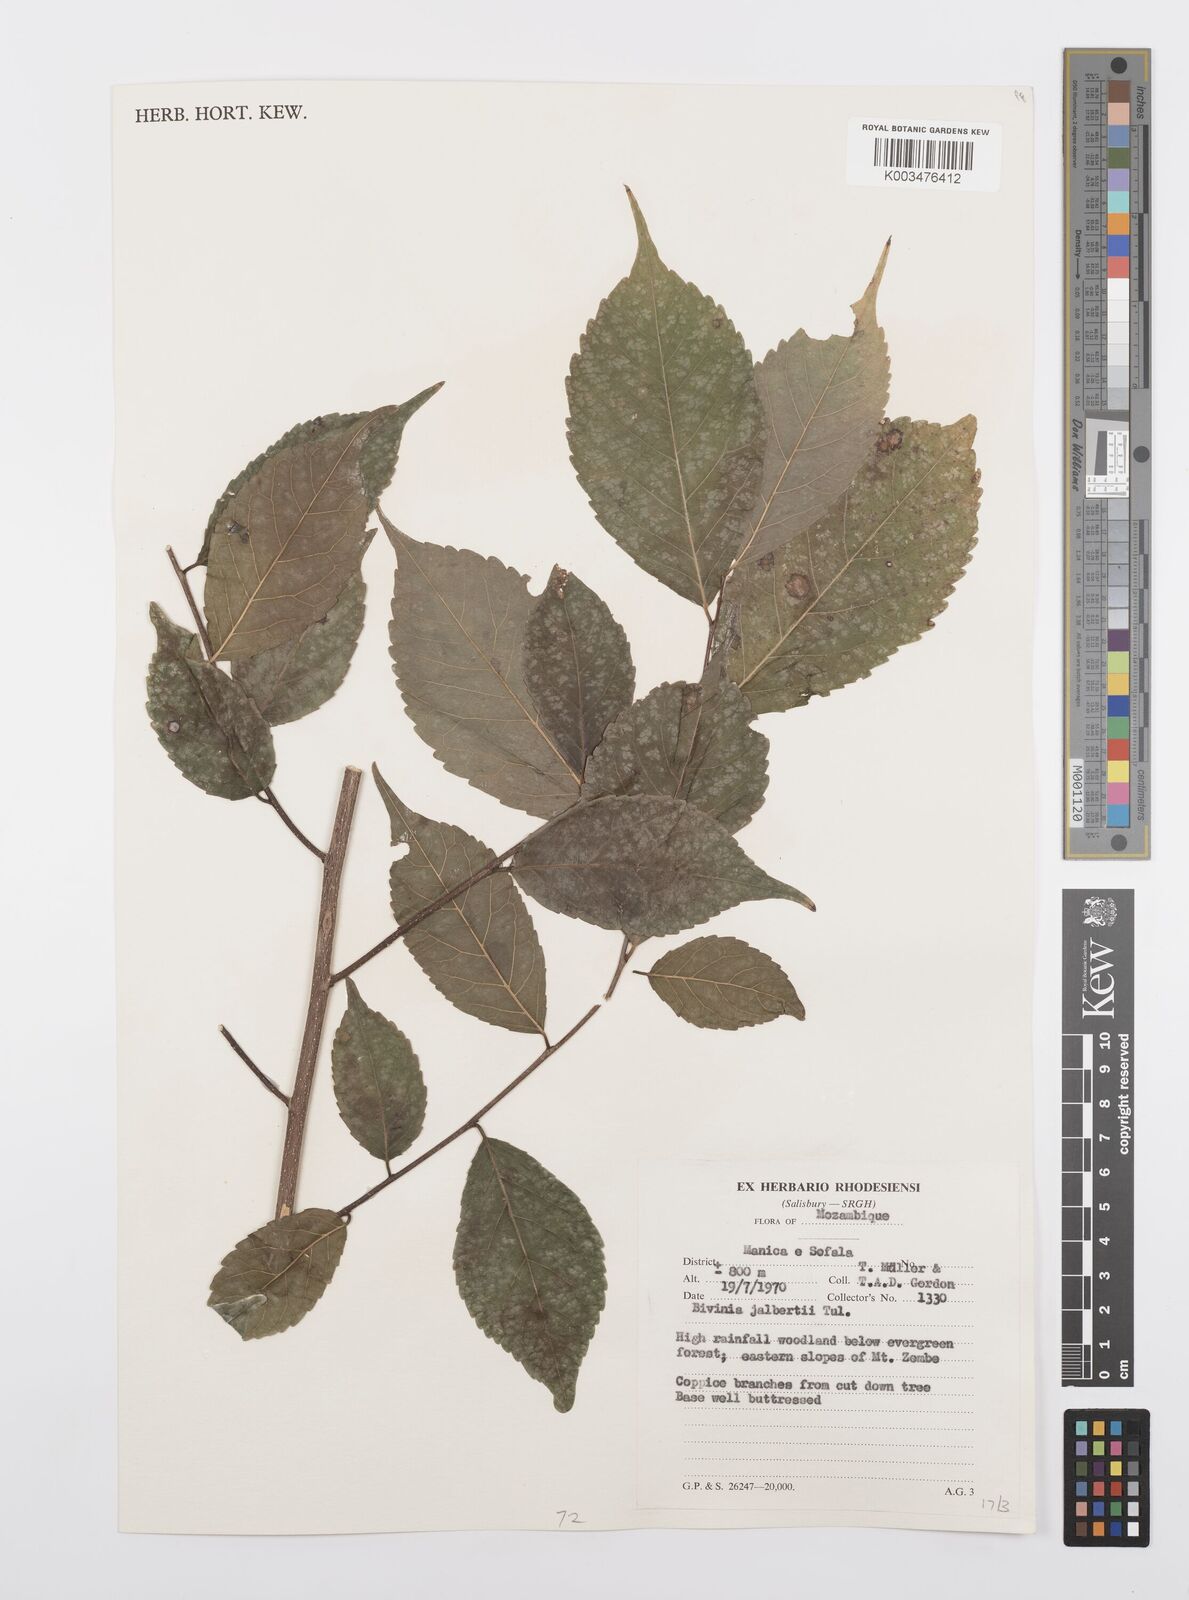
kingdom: Plantae
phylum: Tracheophyta
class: Magnoliopsida
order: Malpighiales
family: Salicaceae
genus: Bivinia
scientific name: Bivinia jalbertii
